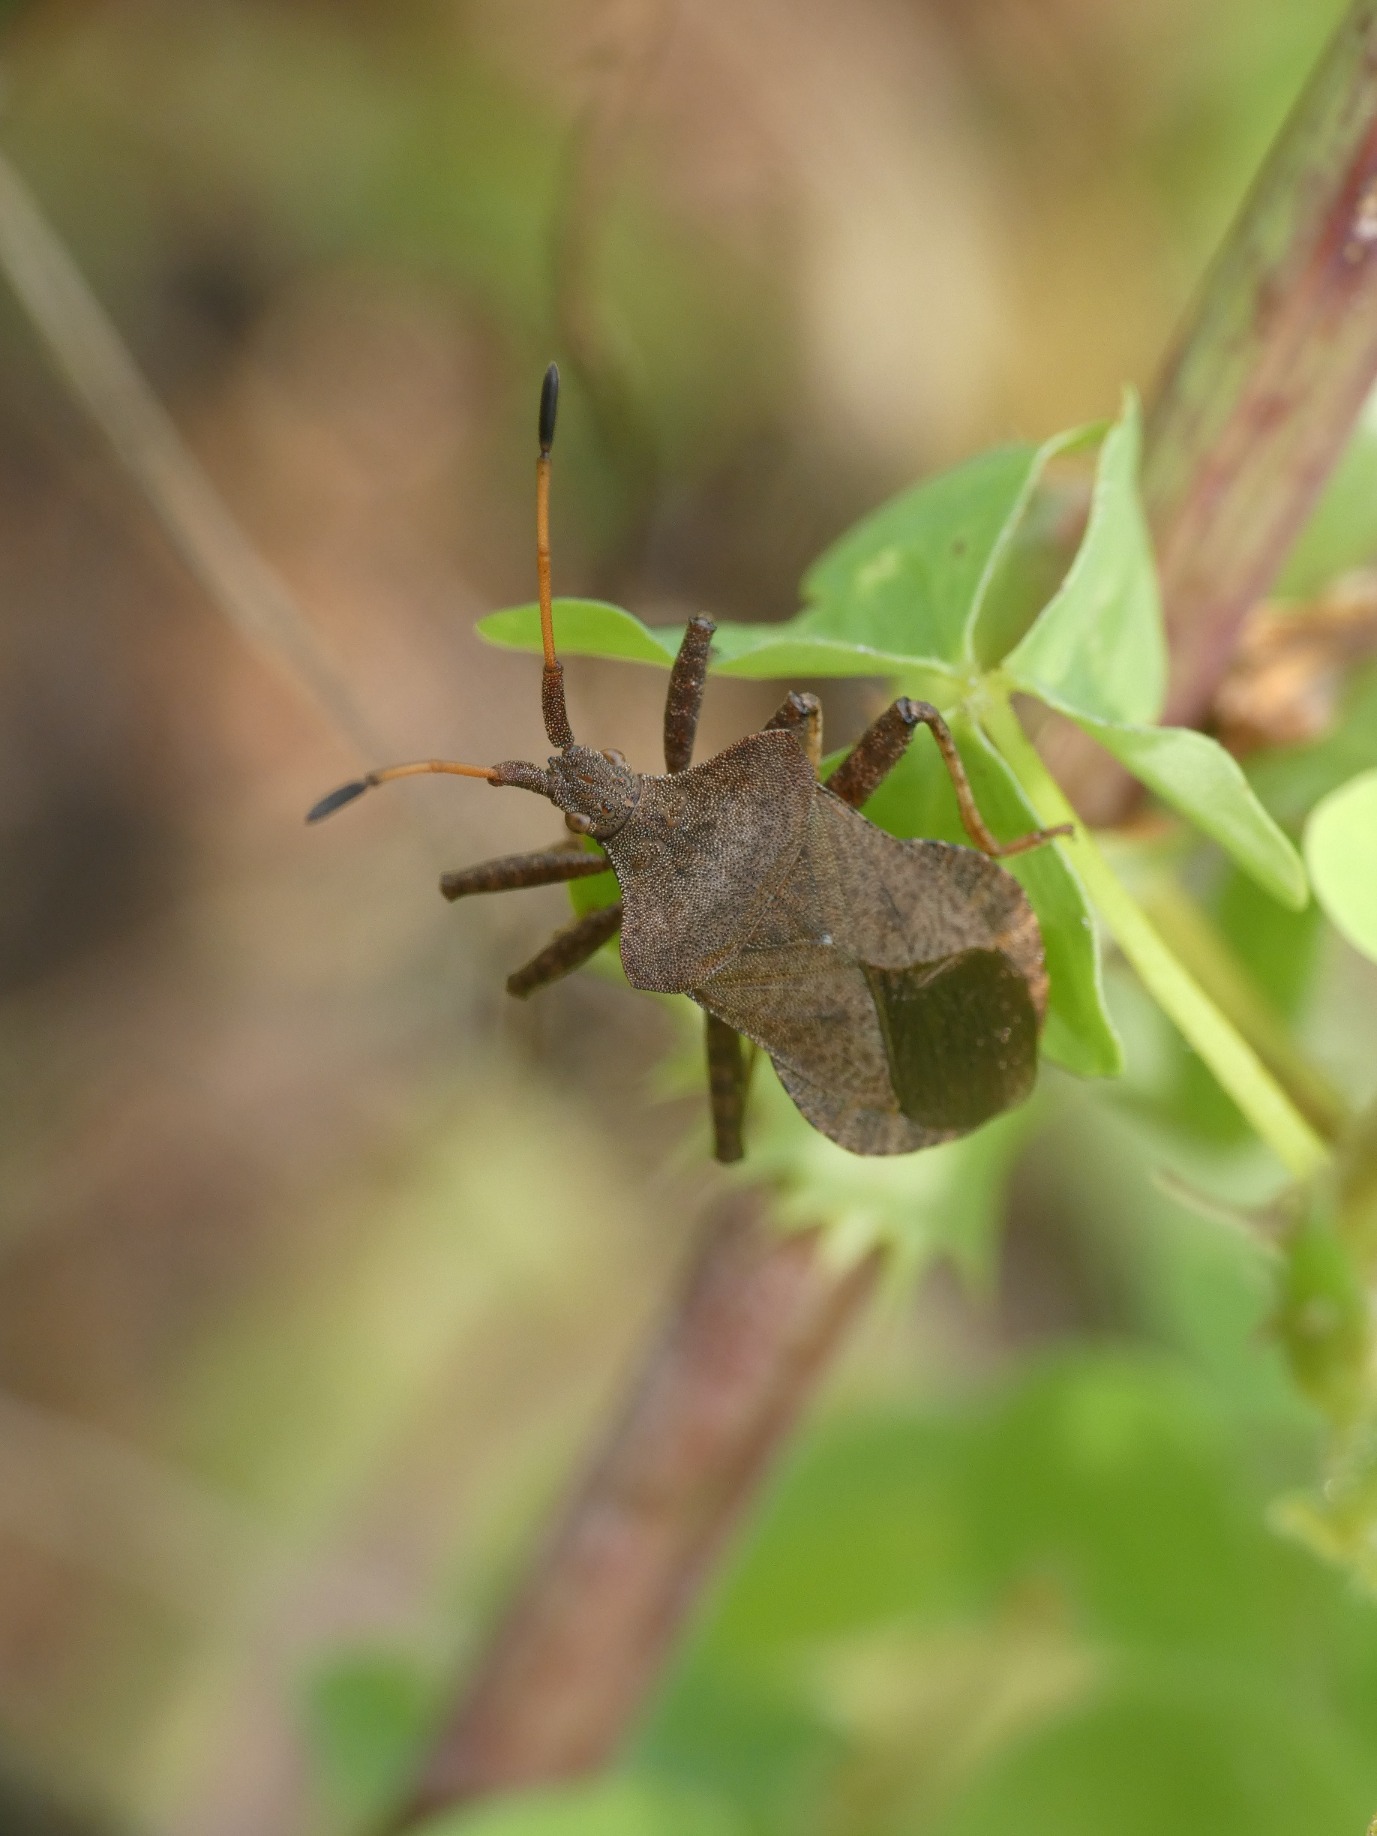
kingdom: Animalia
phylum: Arthropoda
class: Insecta
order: Hemiptera
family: Coreidae
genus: Coreus
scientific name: Coreus marginatus
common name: Skræppetæge
